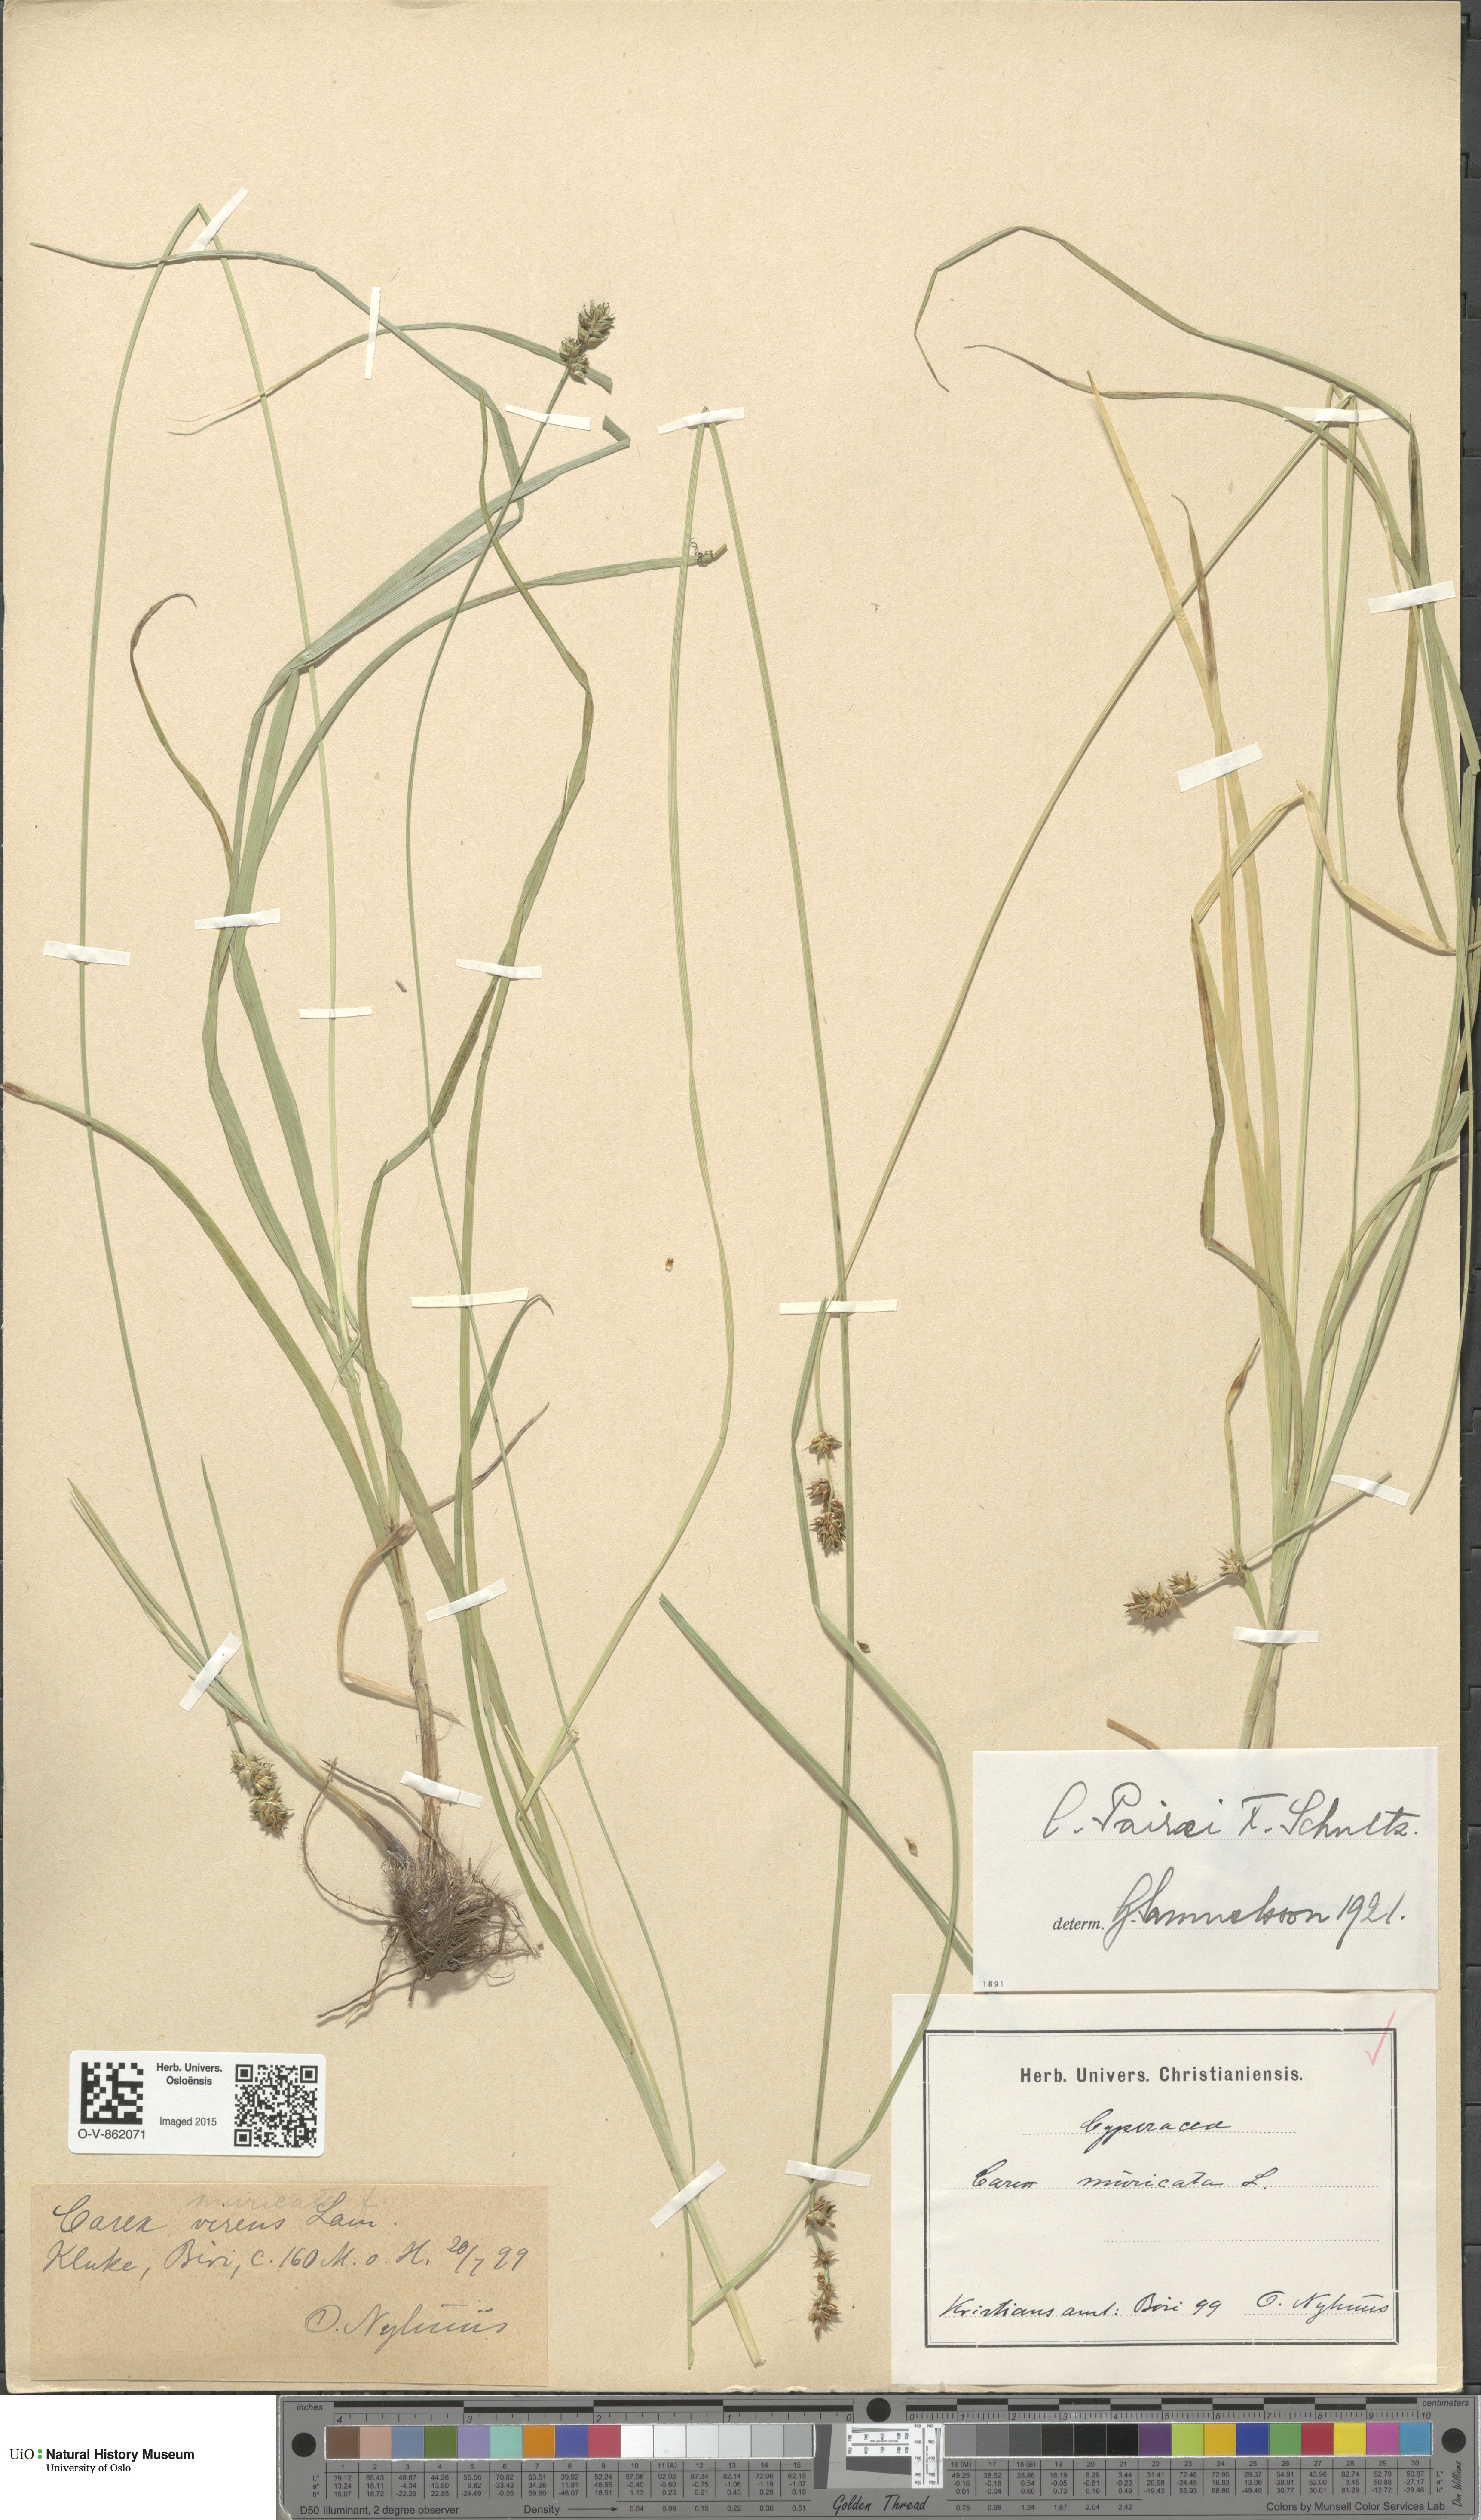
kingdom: Plantae
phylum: Tracheophyta
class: Liliopsida
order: Poales
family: Cyperaceae
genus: Carex
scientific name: Carex pairae
